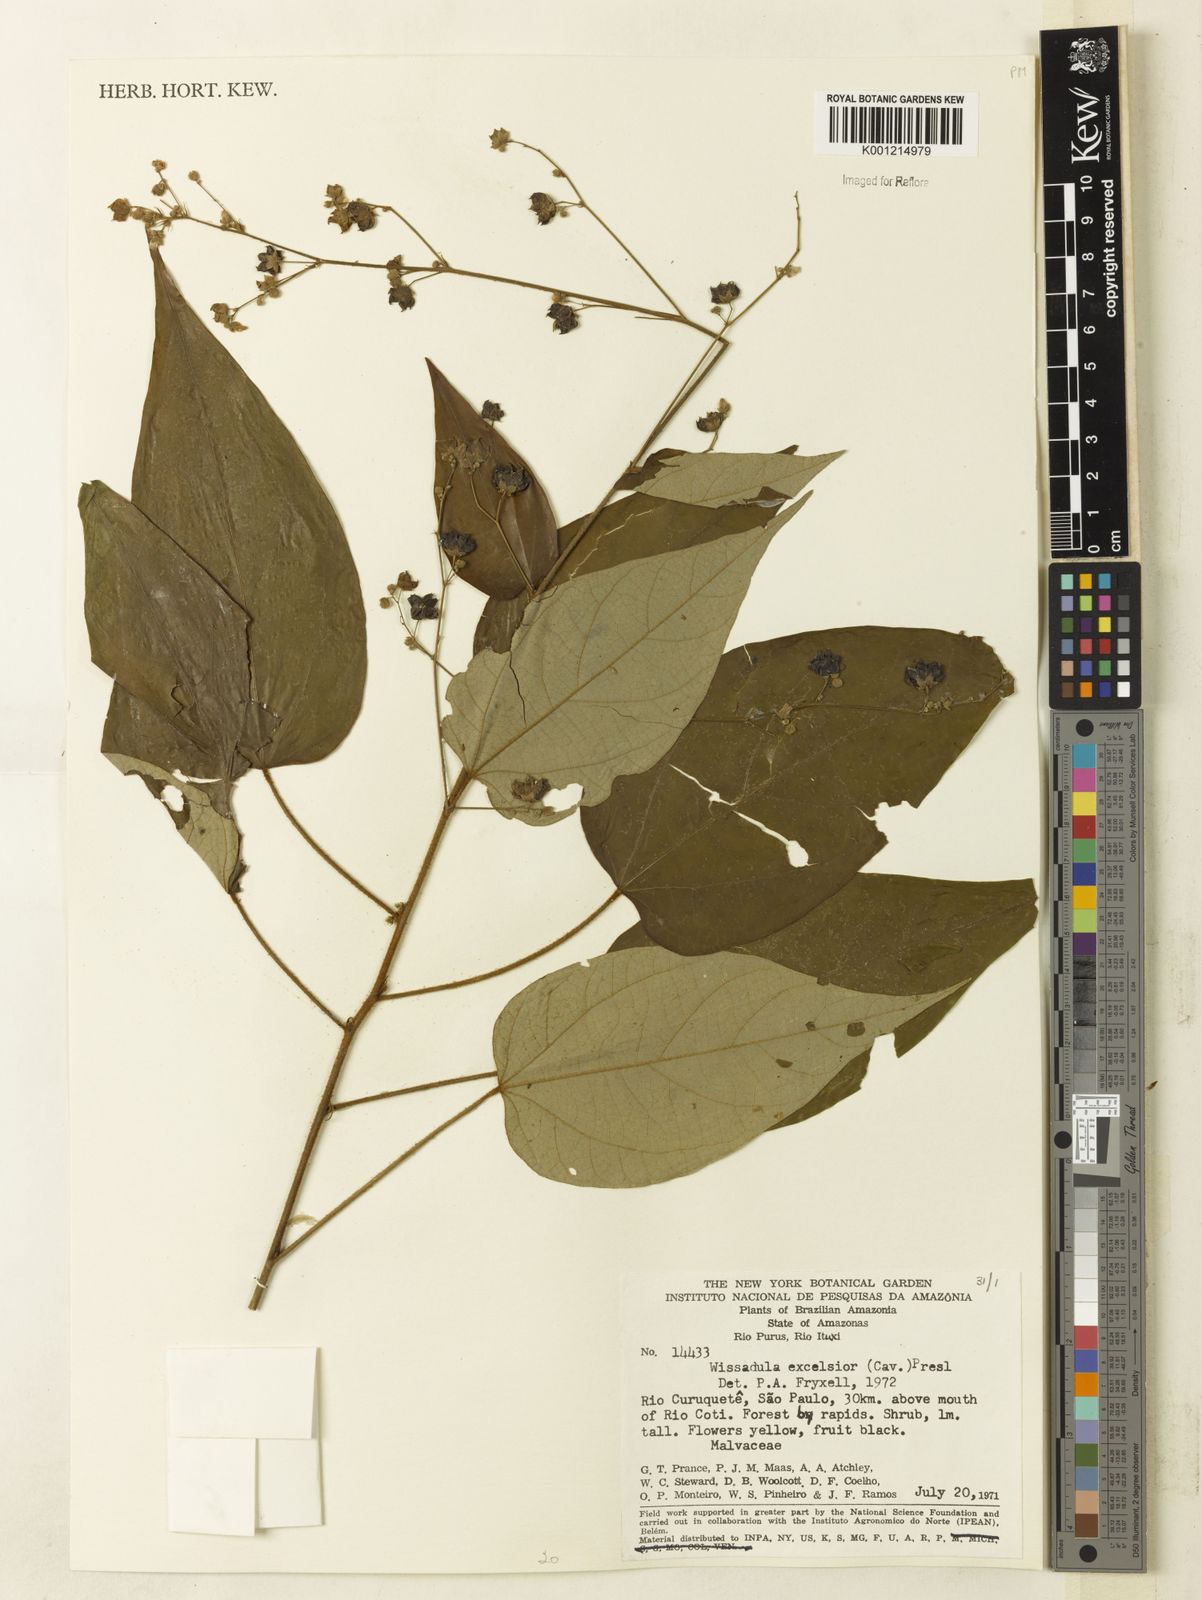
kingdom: Plantae
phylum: Tracheophyta
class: Magnoliopsida
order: Malvales
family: Malvaceae
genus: Wissadula
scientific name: Wissadula excelsior
